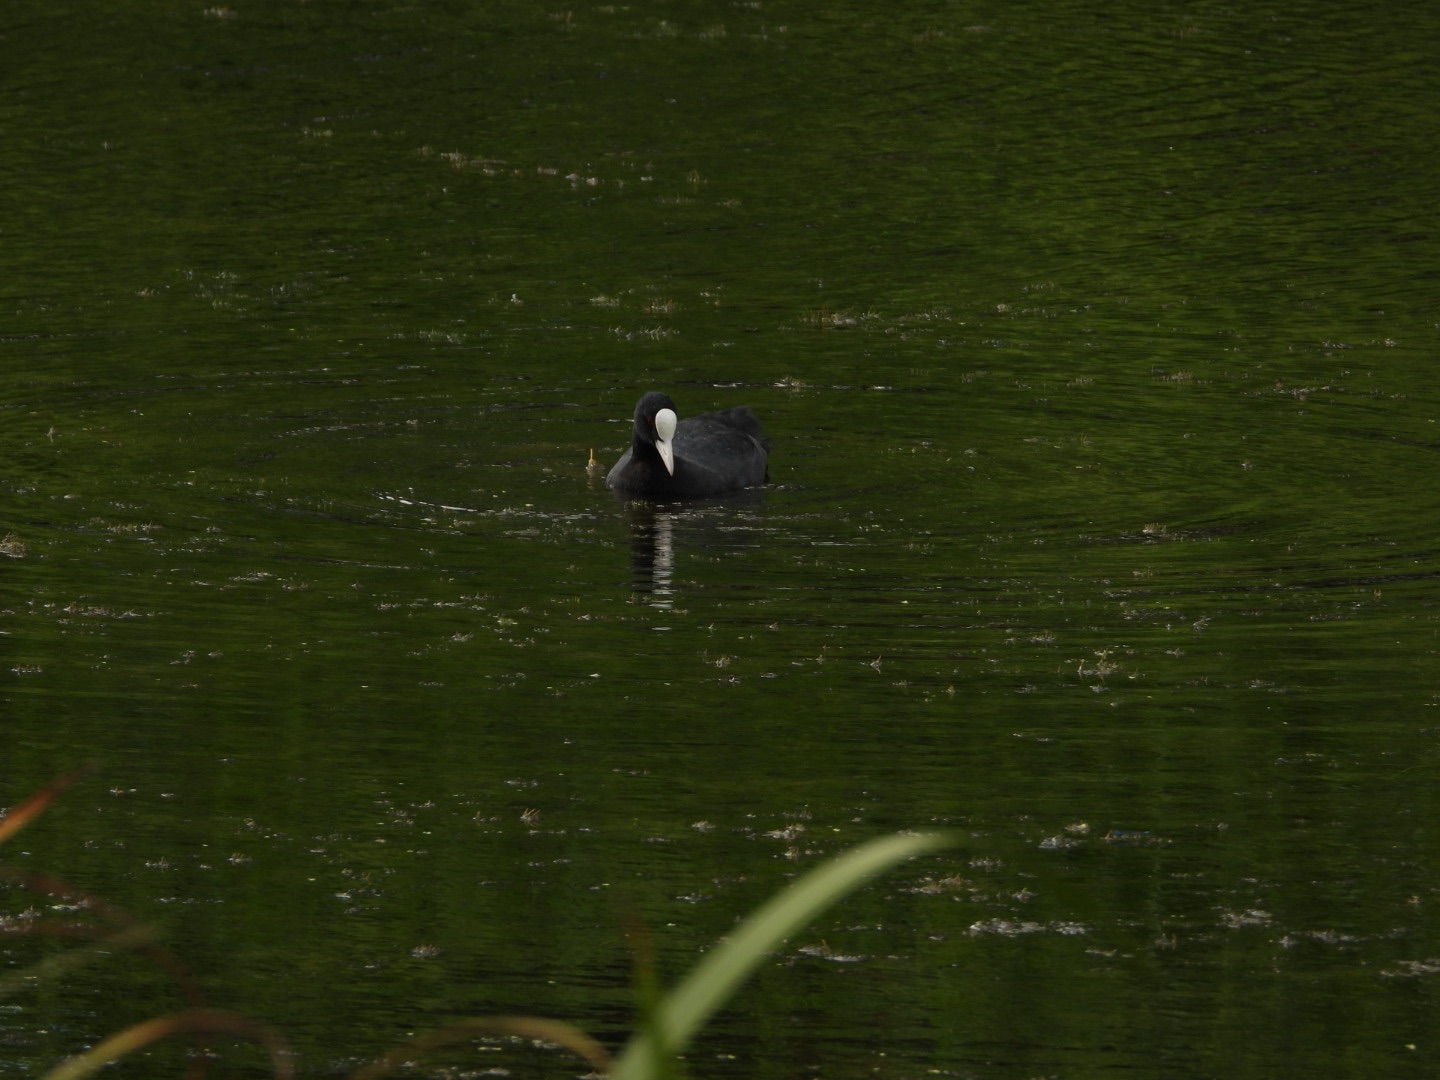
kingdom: Animalia
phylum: Chordata
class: Aves
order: Gruiformes
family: Rallidae
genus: Fulica
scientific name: Fulica atra
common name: Blishøne
